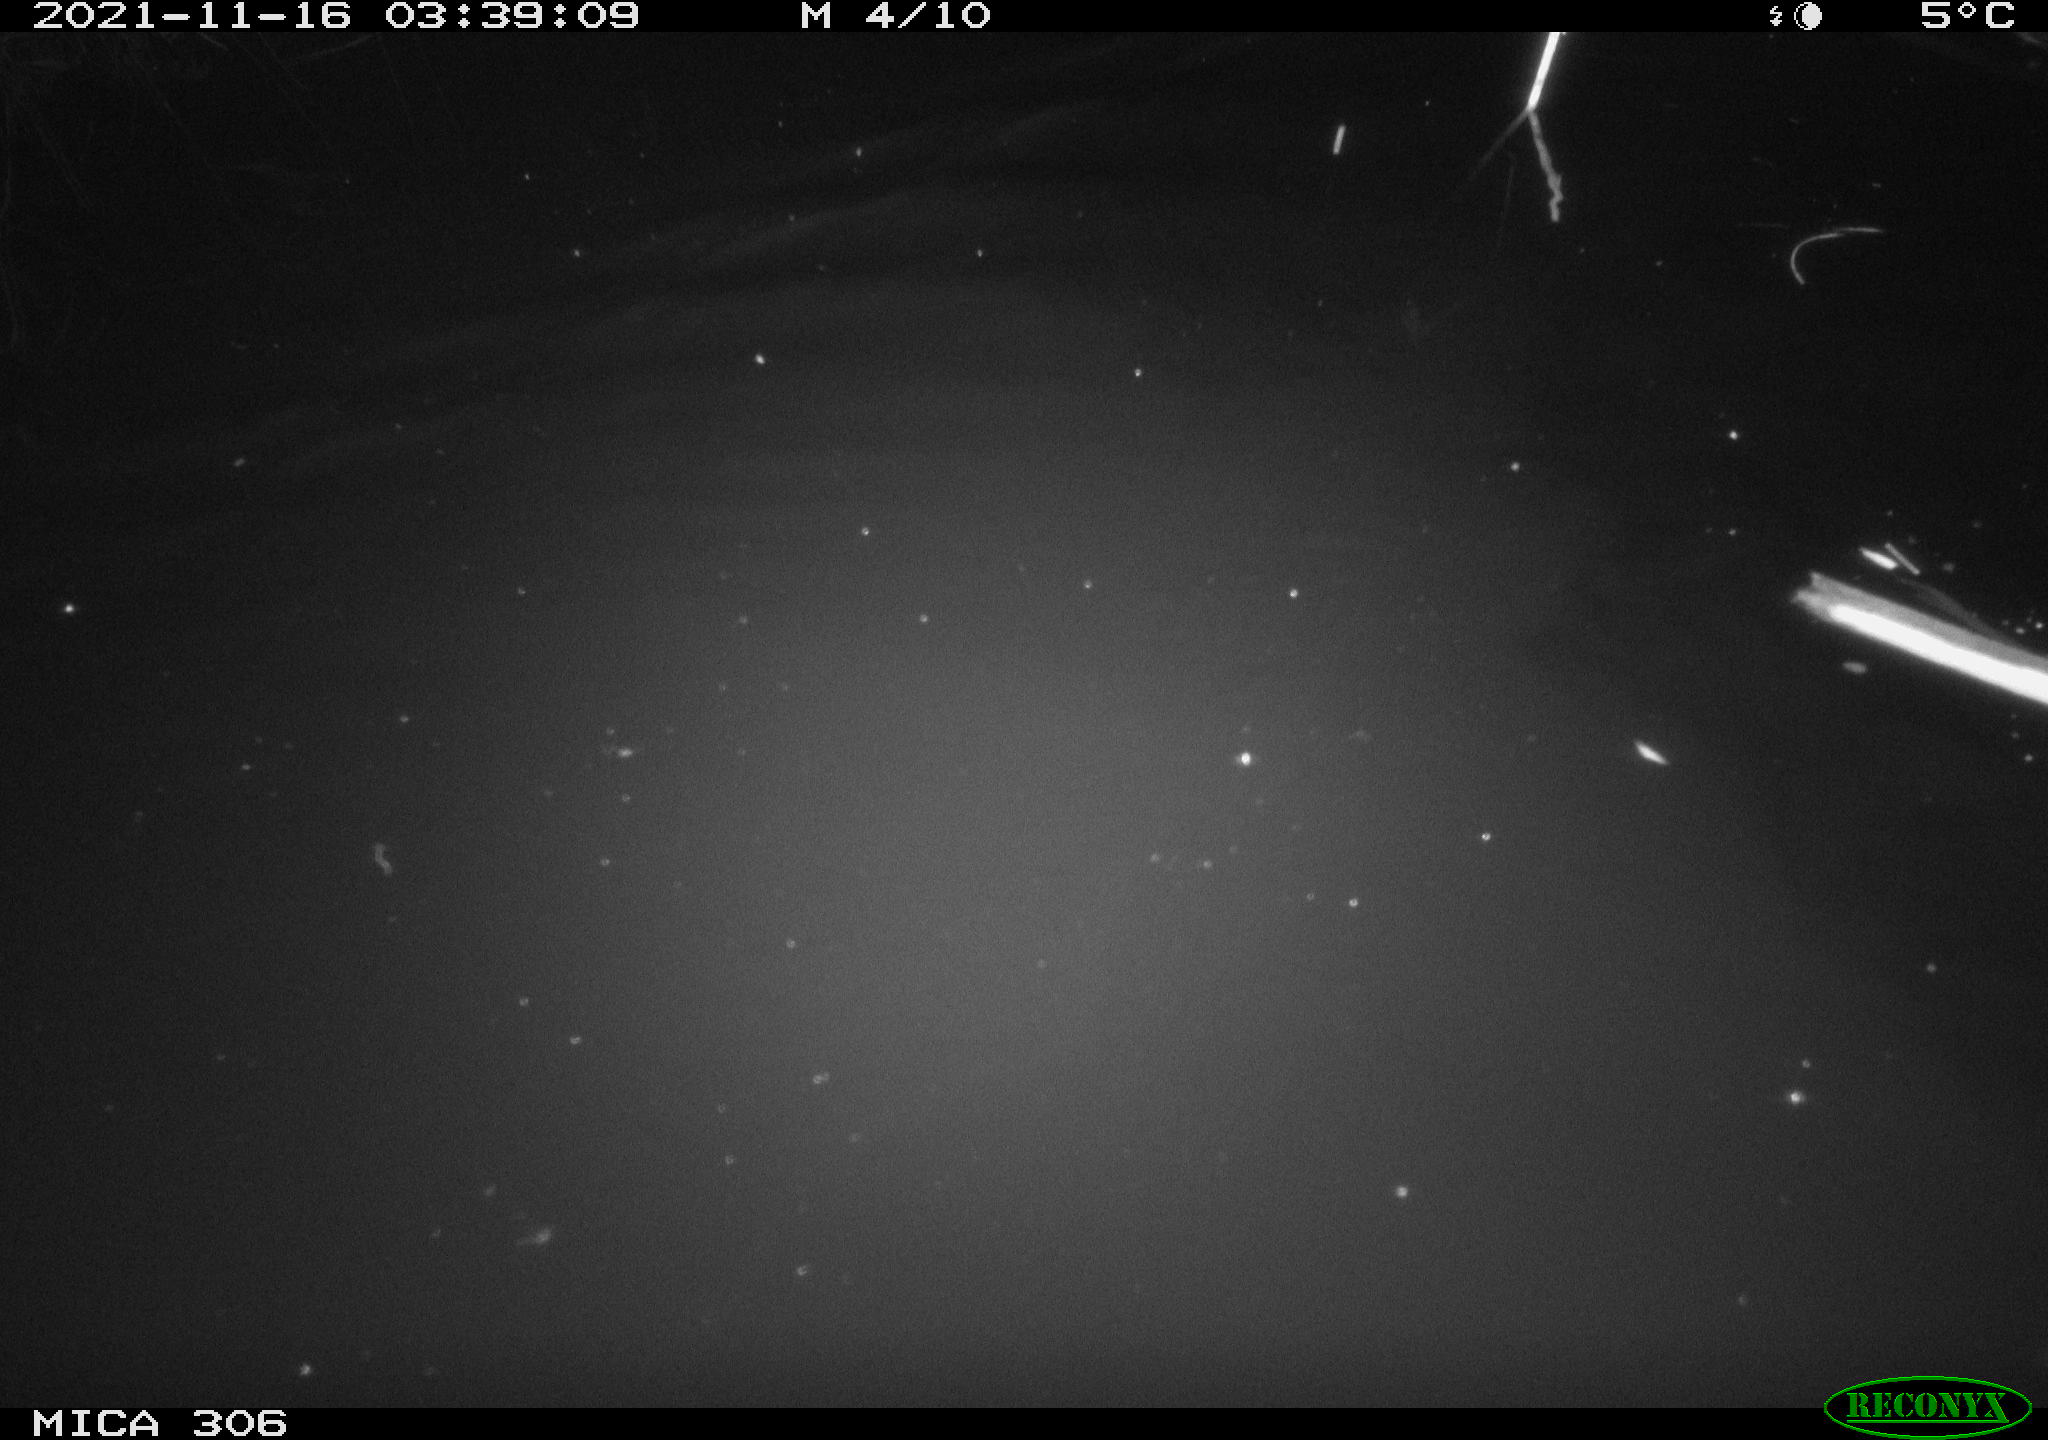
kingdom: Animalia
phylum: Chordata
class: Mammalia
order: Rodentia
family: Muridae
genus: Rattus
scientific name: Rattus norvegicus
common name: Brown rat
